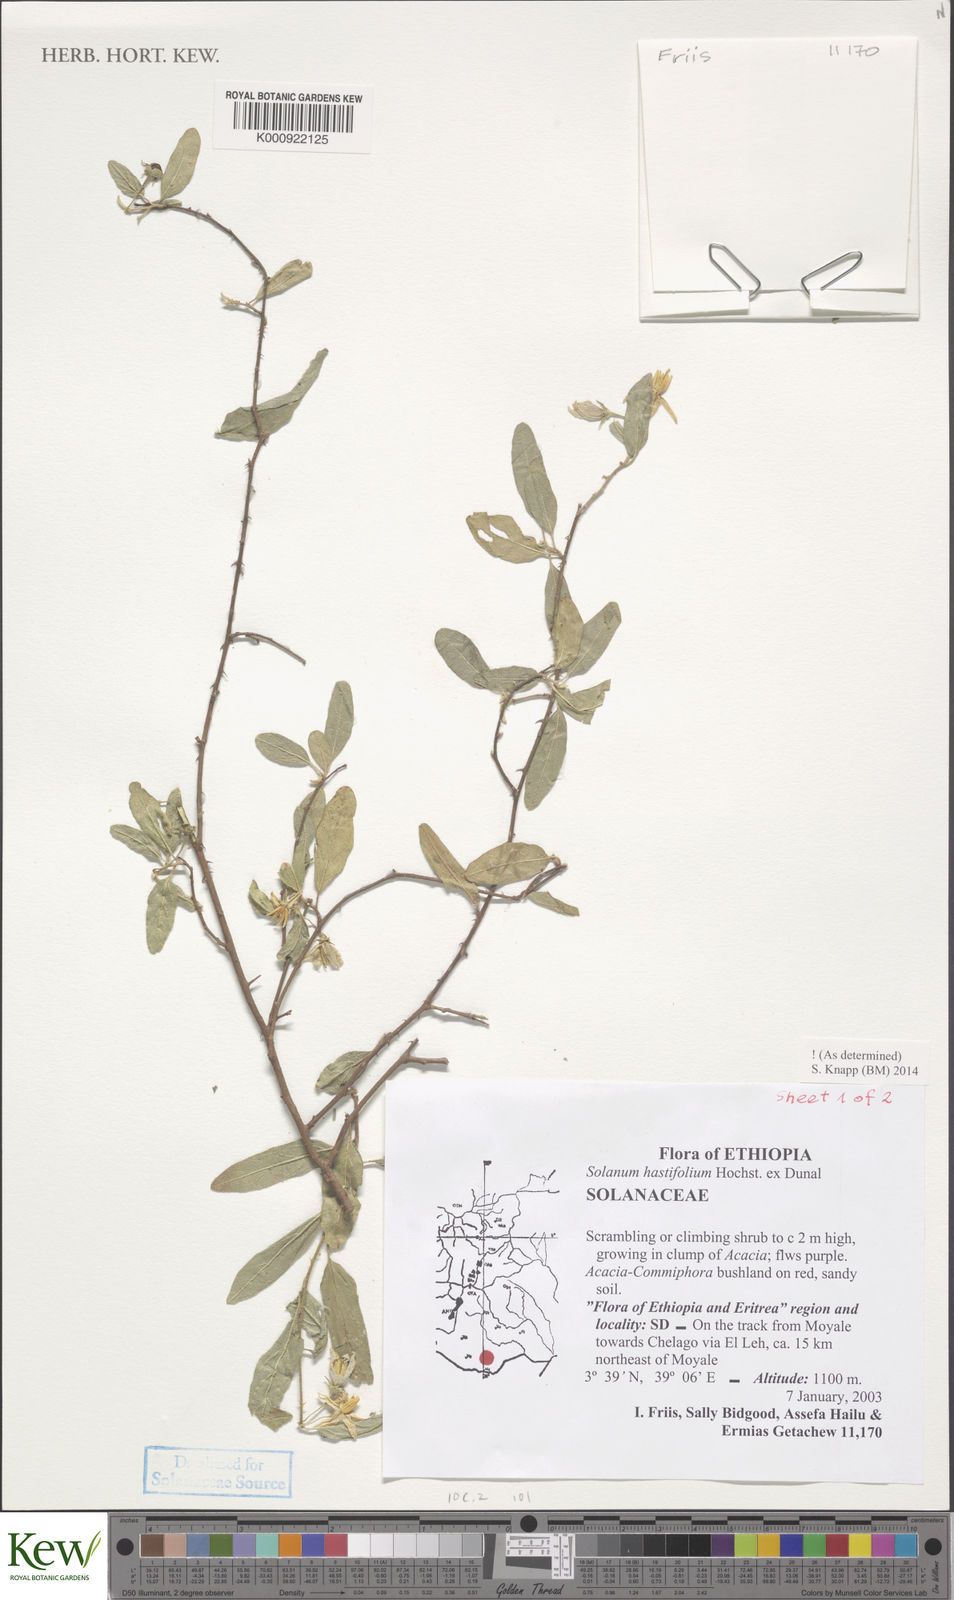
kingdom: Plantae
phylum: Tracheophyta
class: Magnoliopsida
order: Solanales
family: Solanaceae
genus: Solanum
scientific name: Solanum hastifolium
